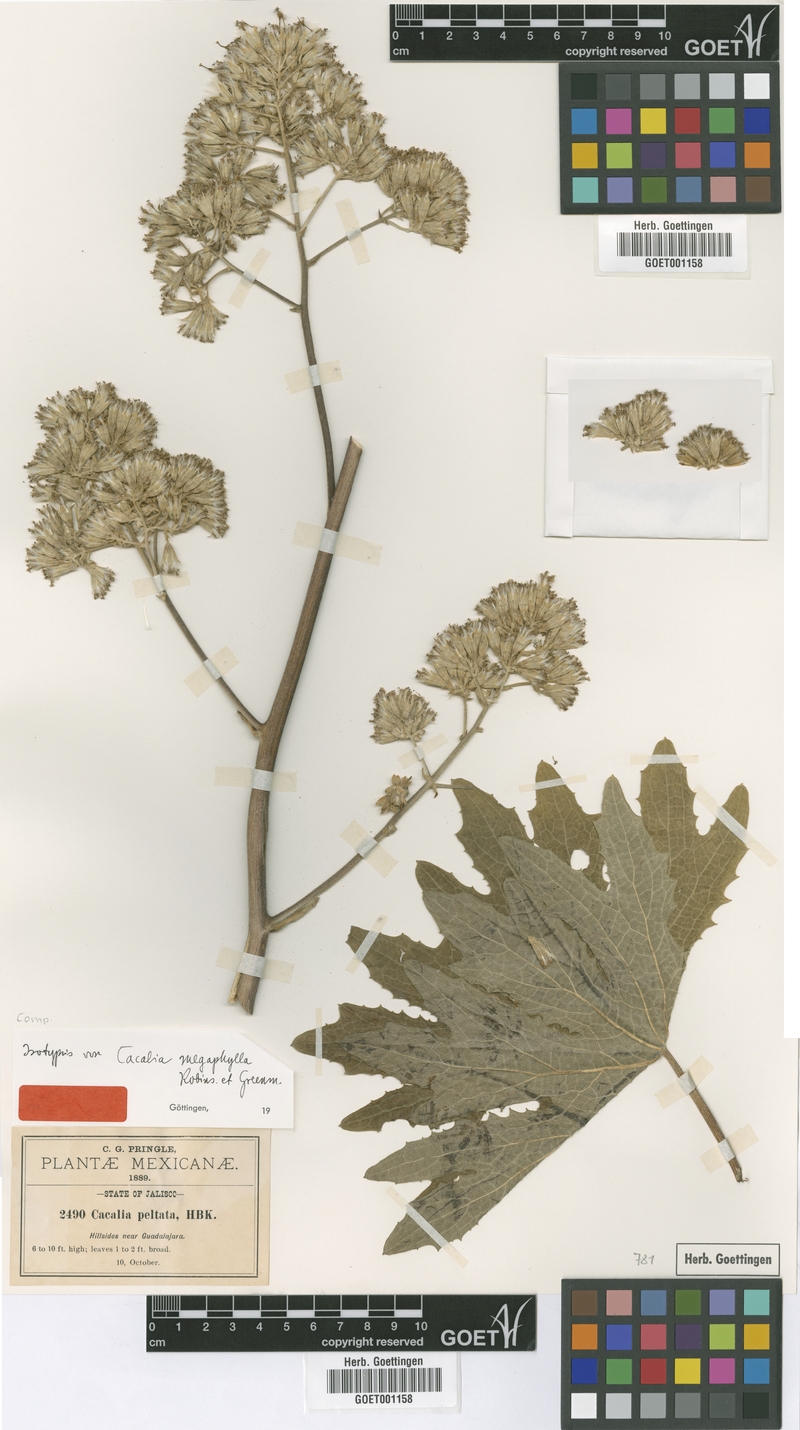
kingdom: Plantae
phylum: Tracheophyta
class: Magnoliopsida
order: Asterales
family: Asteraceae
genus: Psacalium
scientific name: Psacalium megaphyllum
